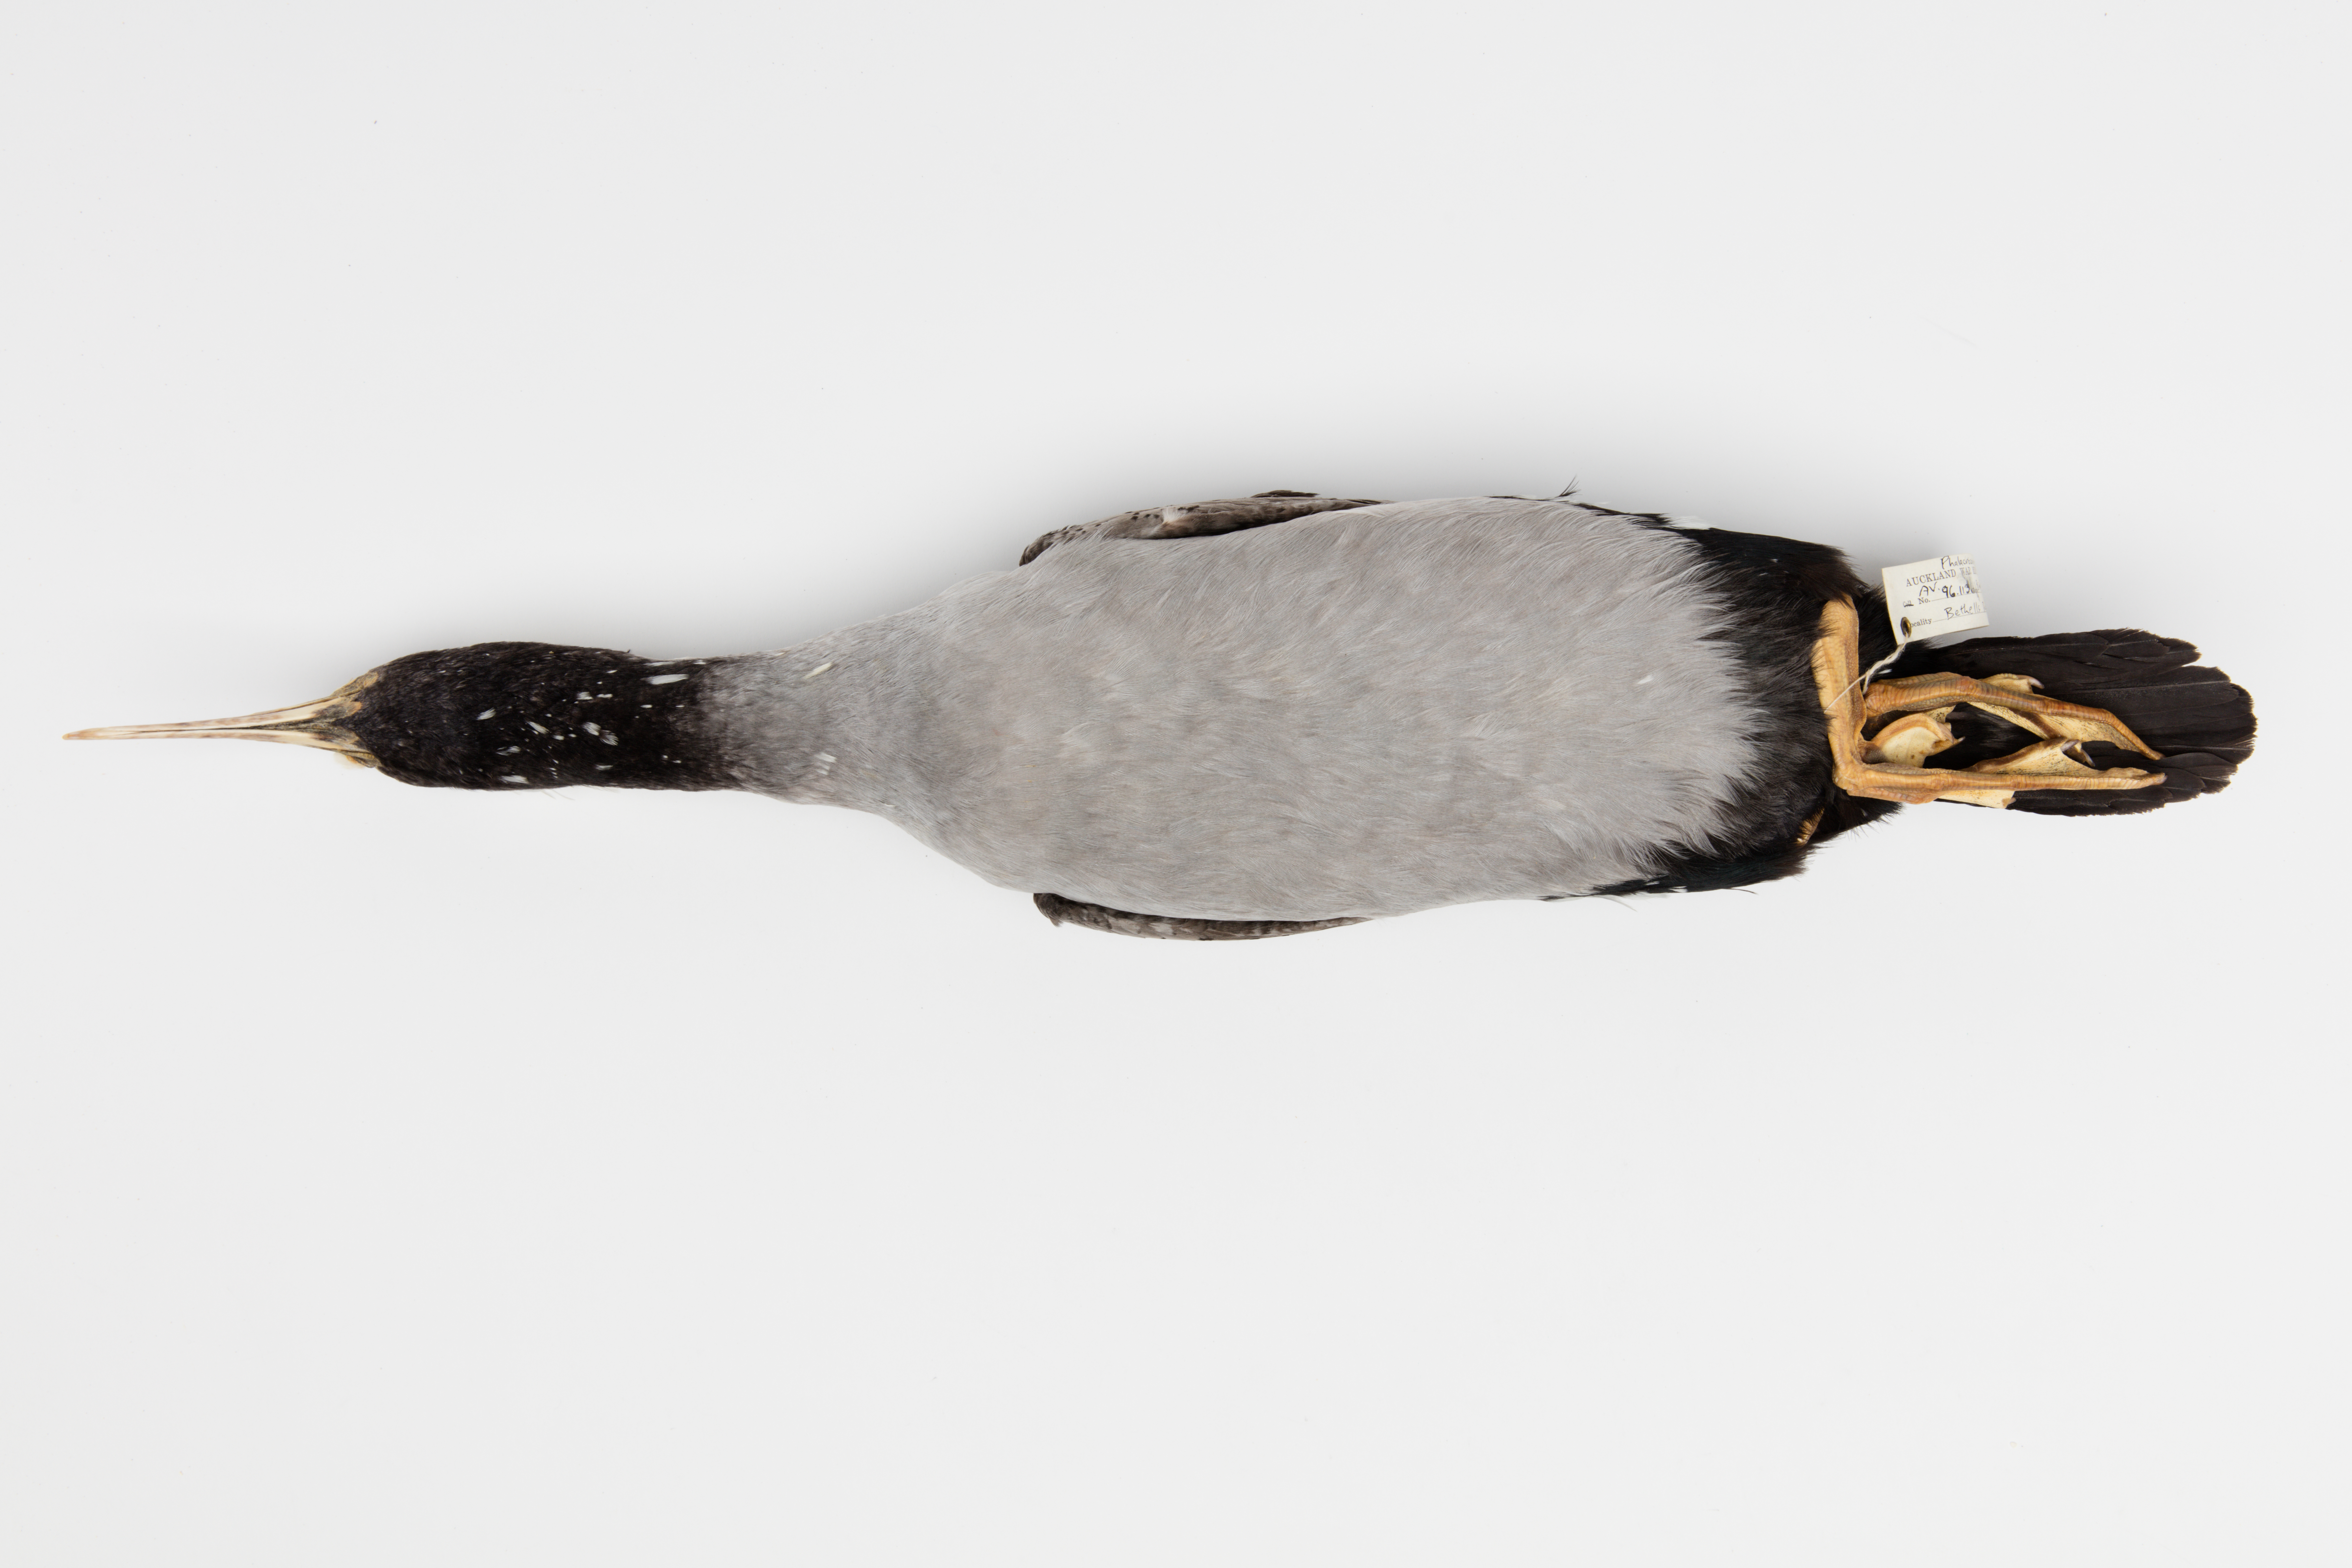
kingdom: Animalia
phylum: Chordata
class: Aves
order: Suliformes
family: Phalacrocoracidae
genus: Phalacrocorax
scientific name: Phalacrocorax punctatus
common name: Spotted shag
